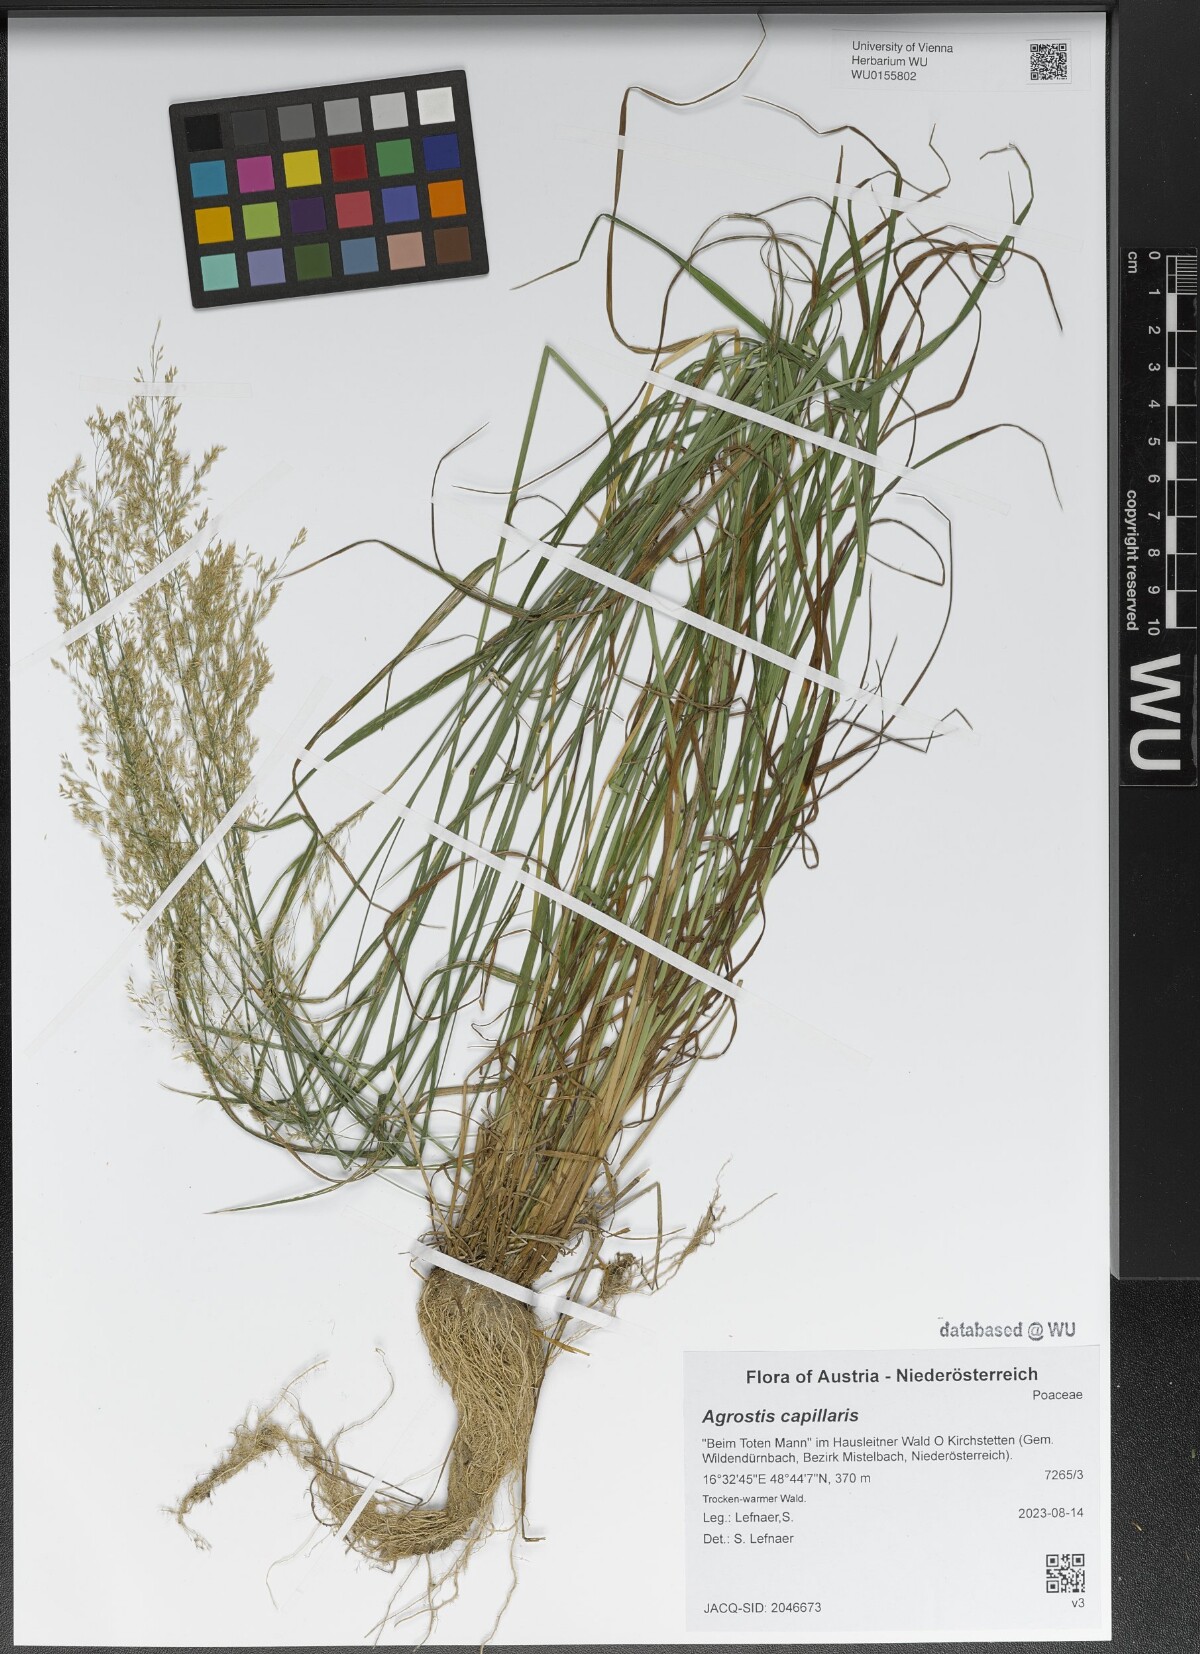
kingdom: Plantae
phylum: Tracheophyta
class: Liliopsida
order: Poales
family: Poaceae
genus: Agrostis
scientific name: Agrostis capillaris
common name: Colonial bentgrass
